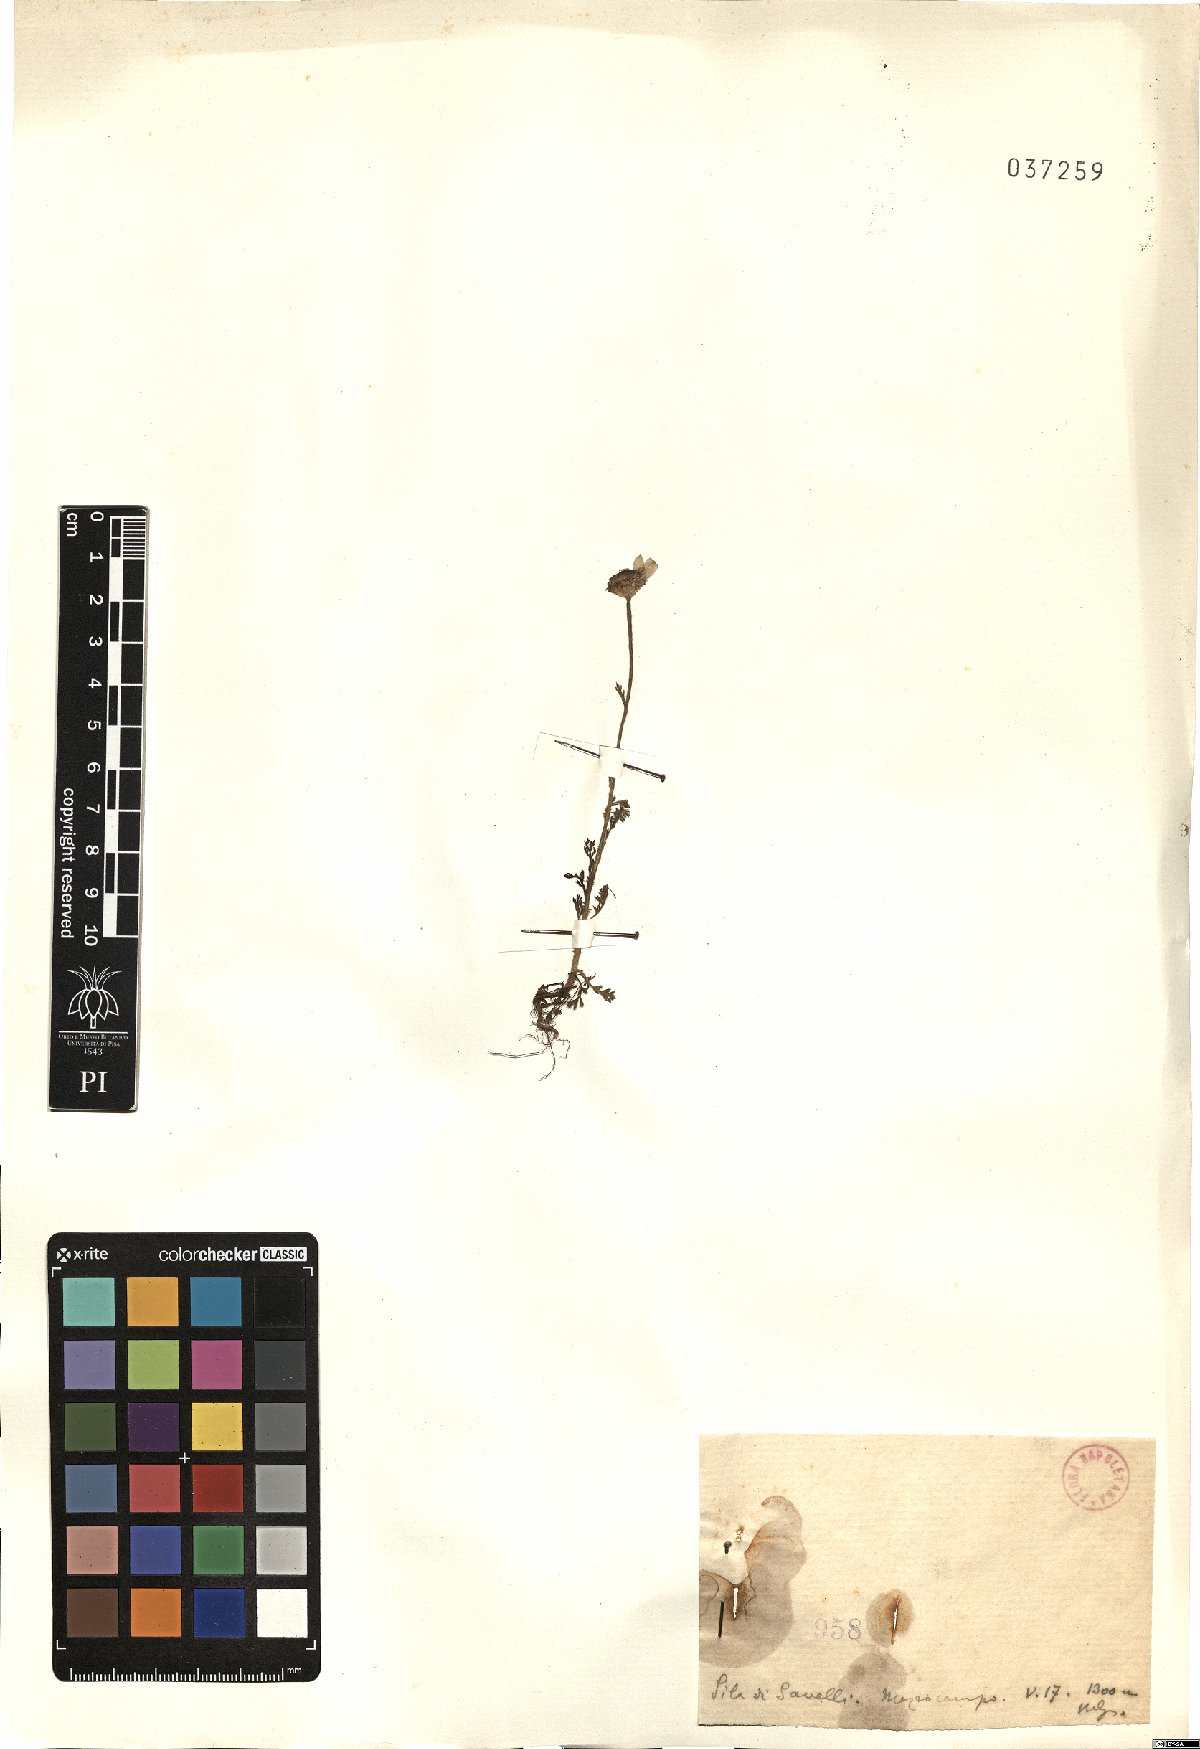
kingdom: Plantae
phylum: Tracheophyta
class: Magnoliopsida
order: Asterales
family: Asteraceae
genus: Anthemis
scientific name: Anthemis
